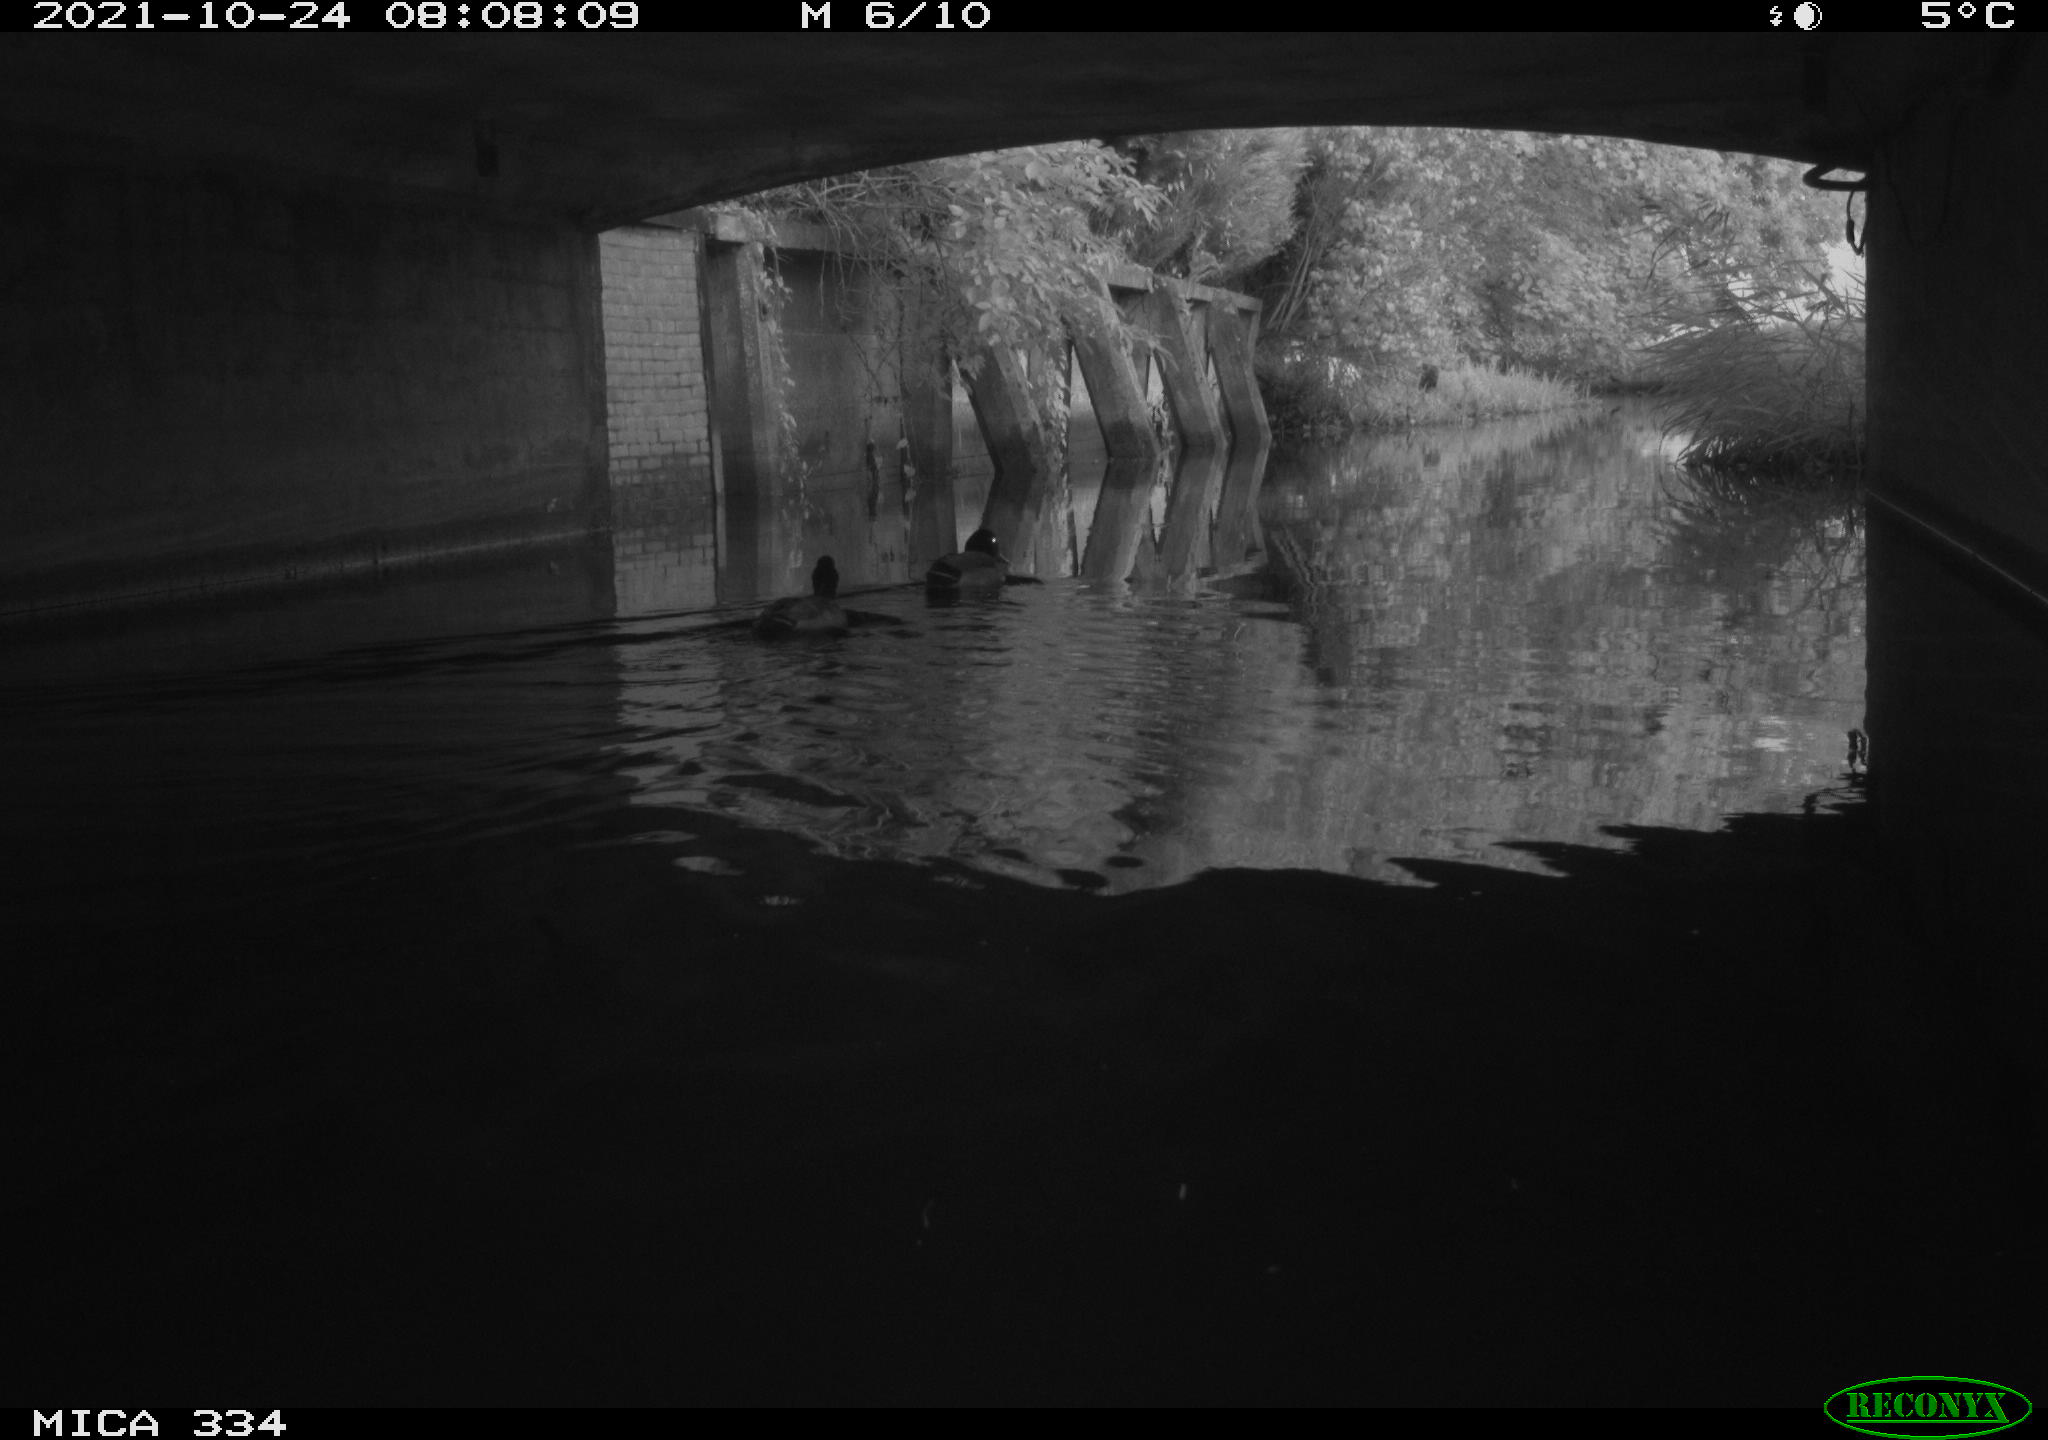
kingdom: Animalia
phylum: Chordata
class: Aves
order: Anseriformes
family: Anatidae
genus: Anas
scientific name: Anas platyrhynchos
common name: Mallard
